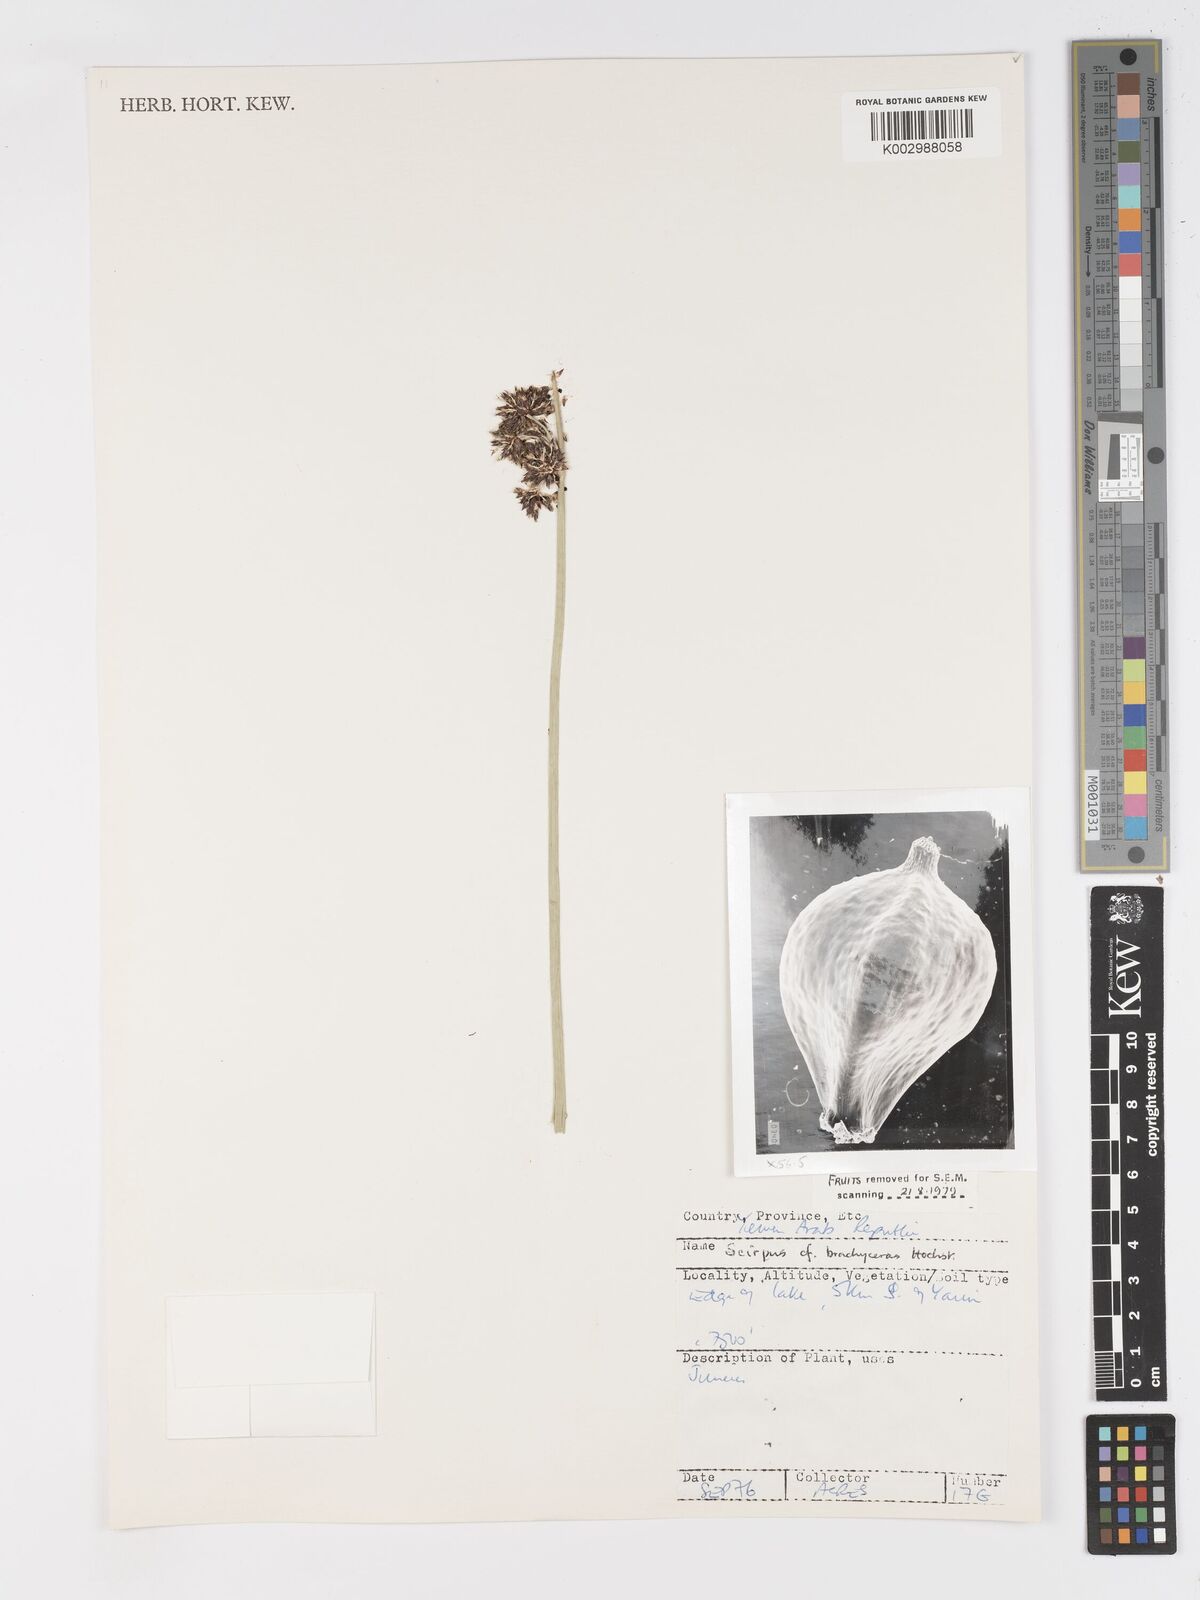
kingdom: Plantae
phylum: Tracheophyta
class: Liliopsida
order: Poales
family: Cyperaceae
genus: Schoenoplectiella
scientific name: Schoenoplectiella brachyceras
